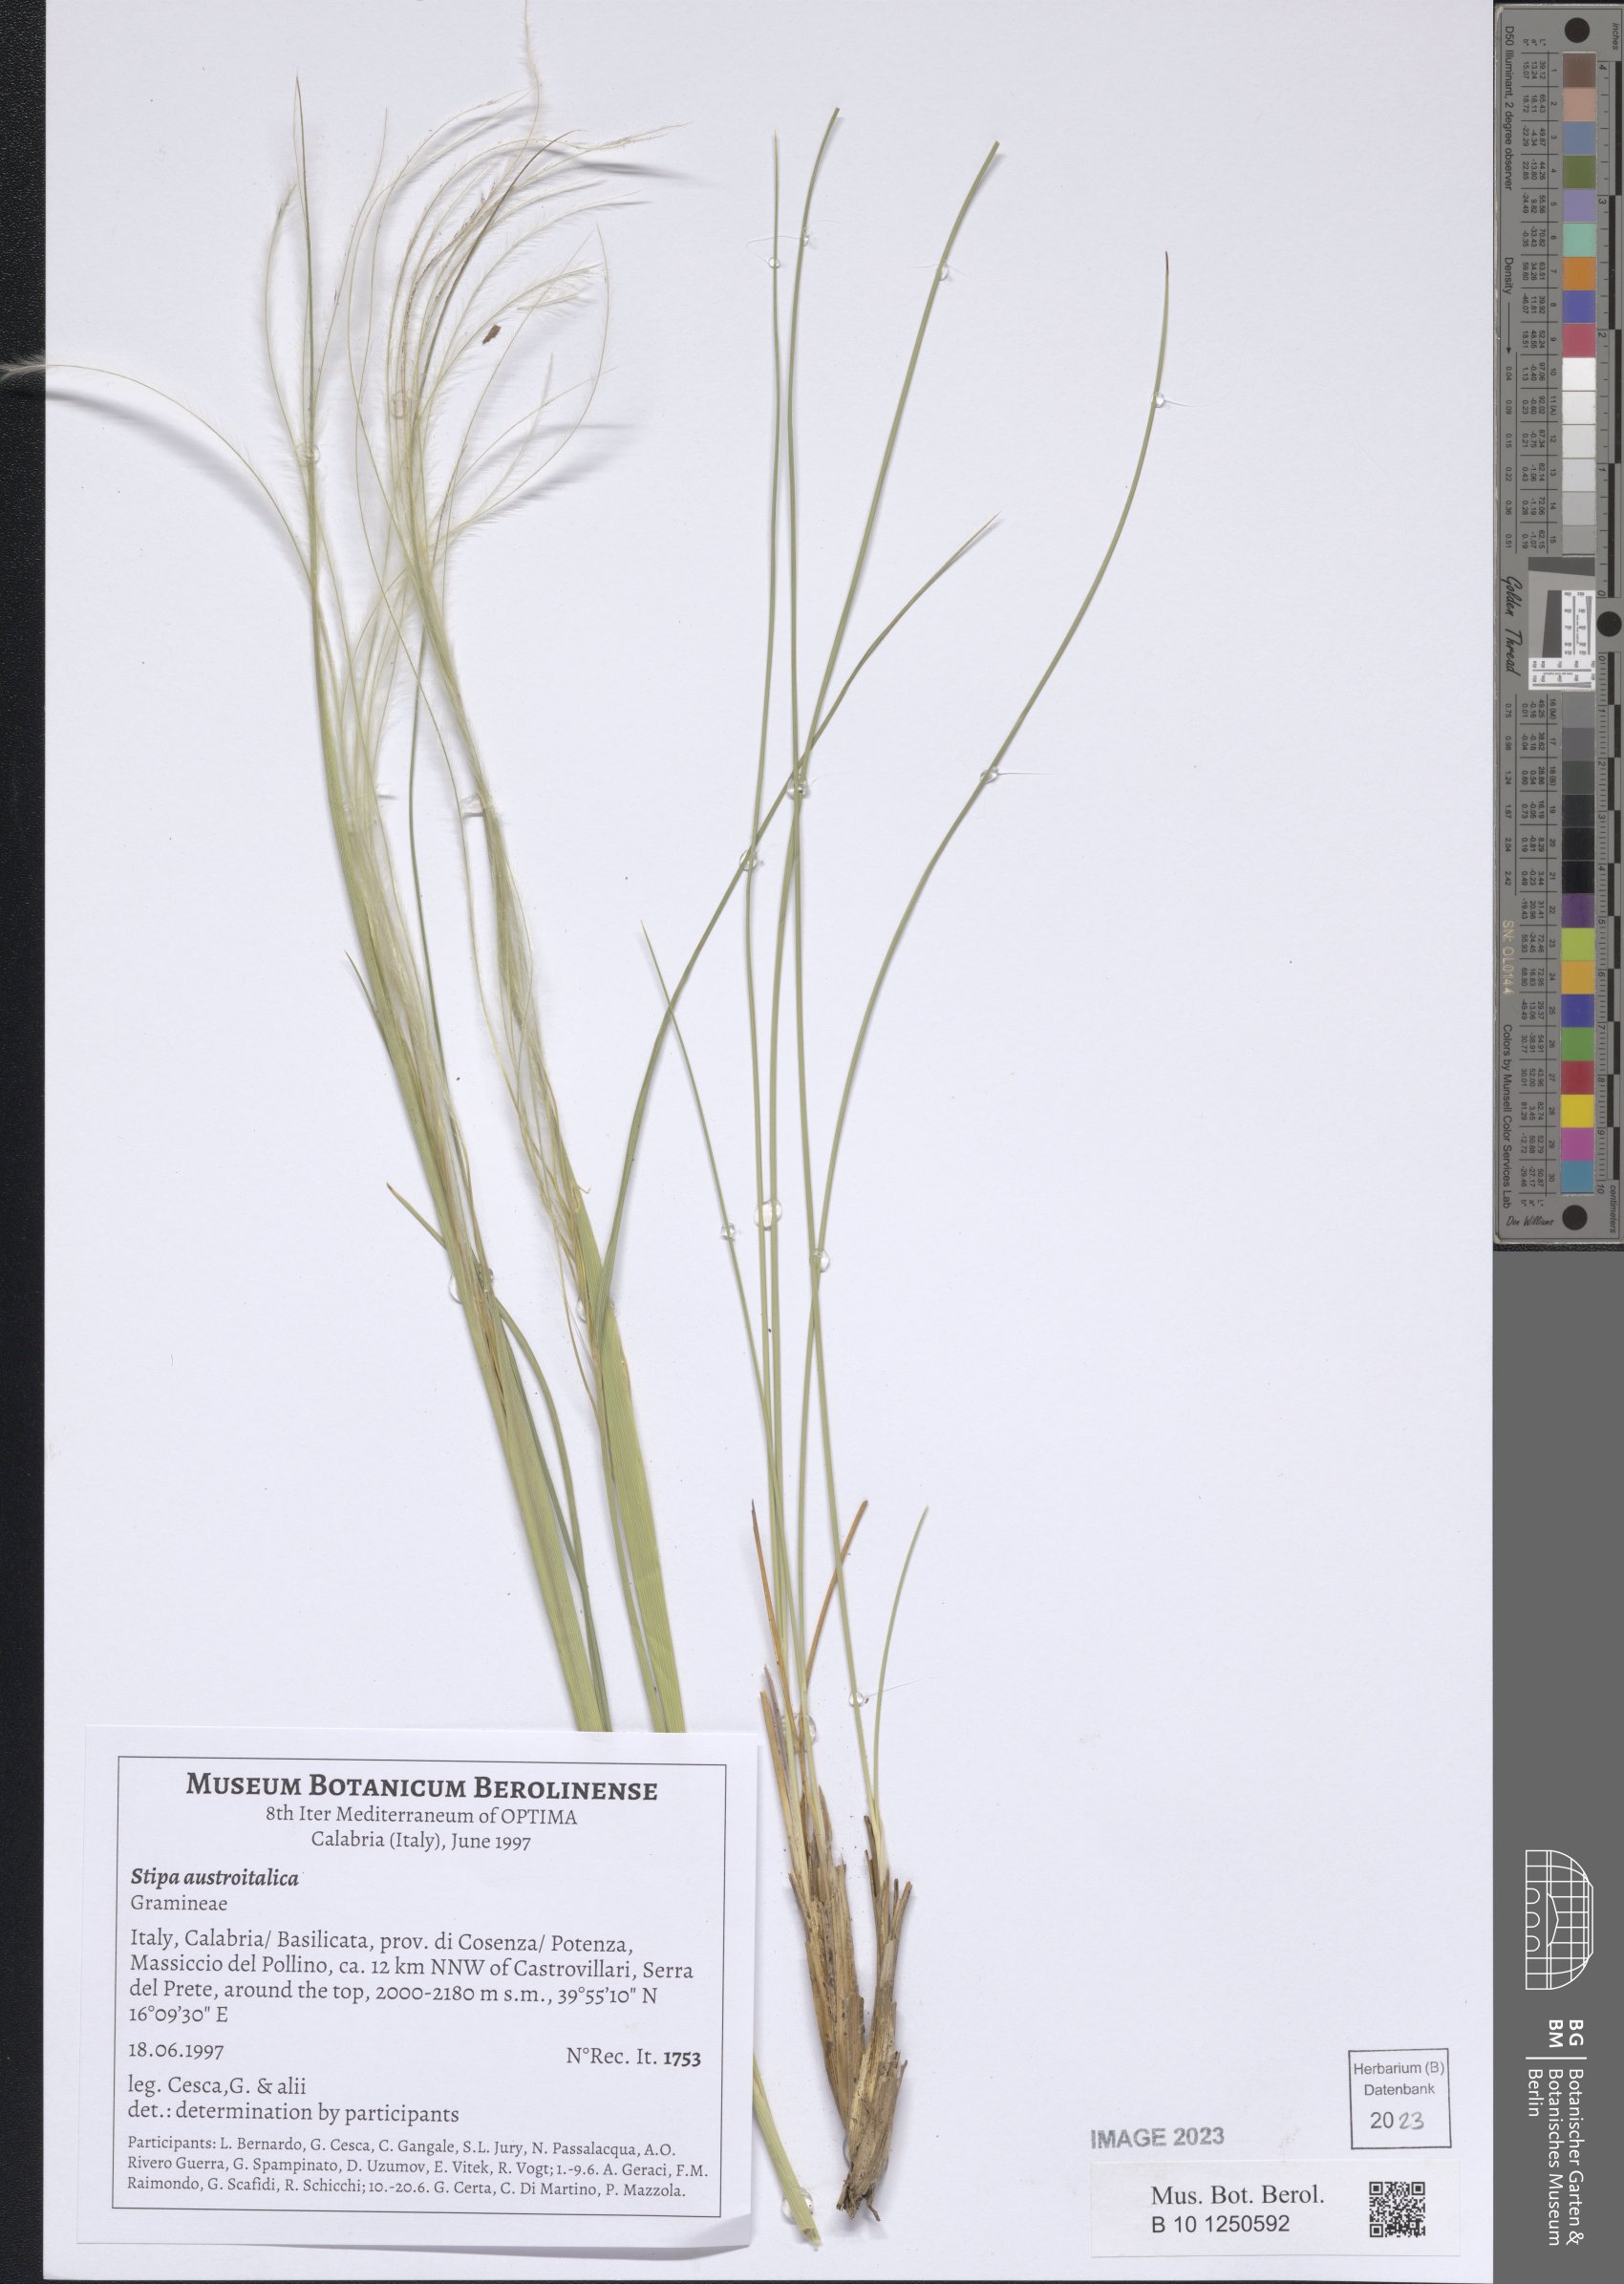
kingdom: Plantae
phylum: Tracheophyta
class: Liliopsida
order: Poales
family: Poaceae
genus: Stipa
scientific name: Stipa austroitalica
